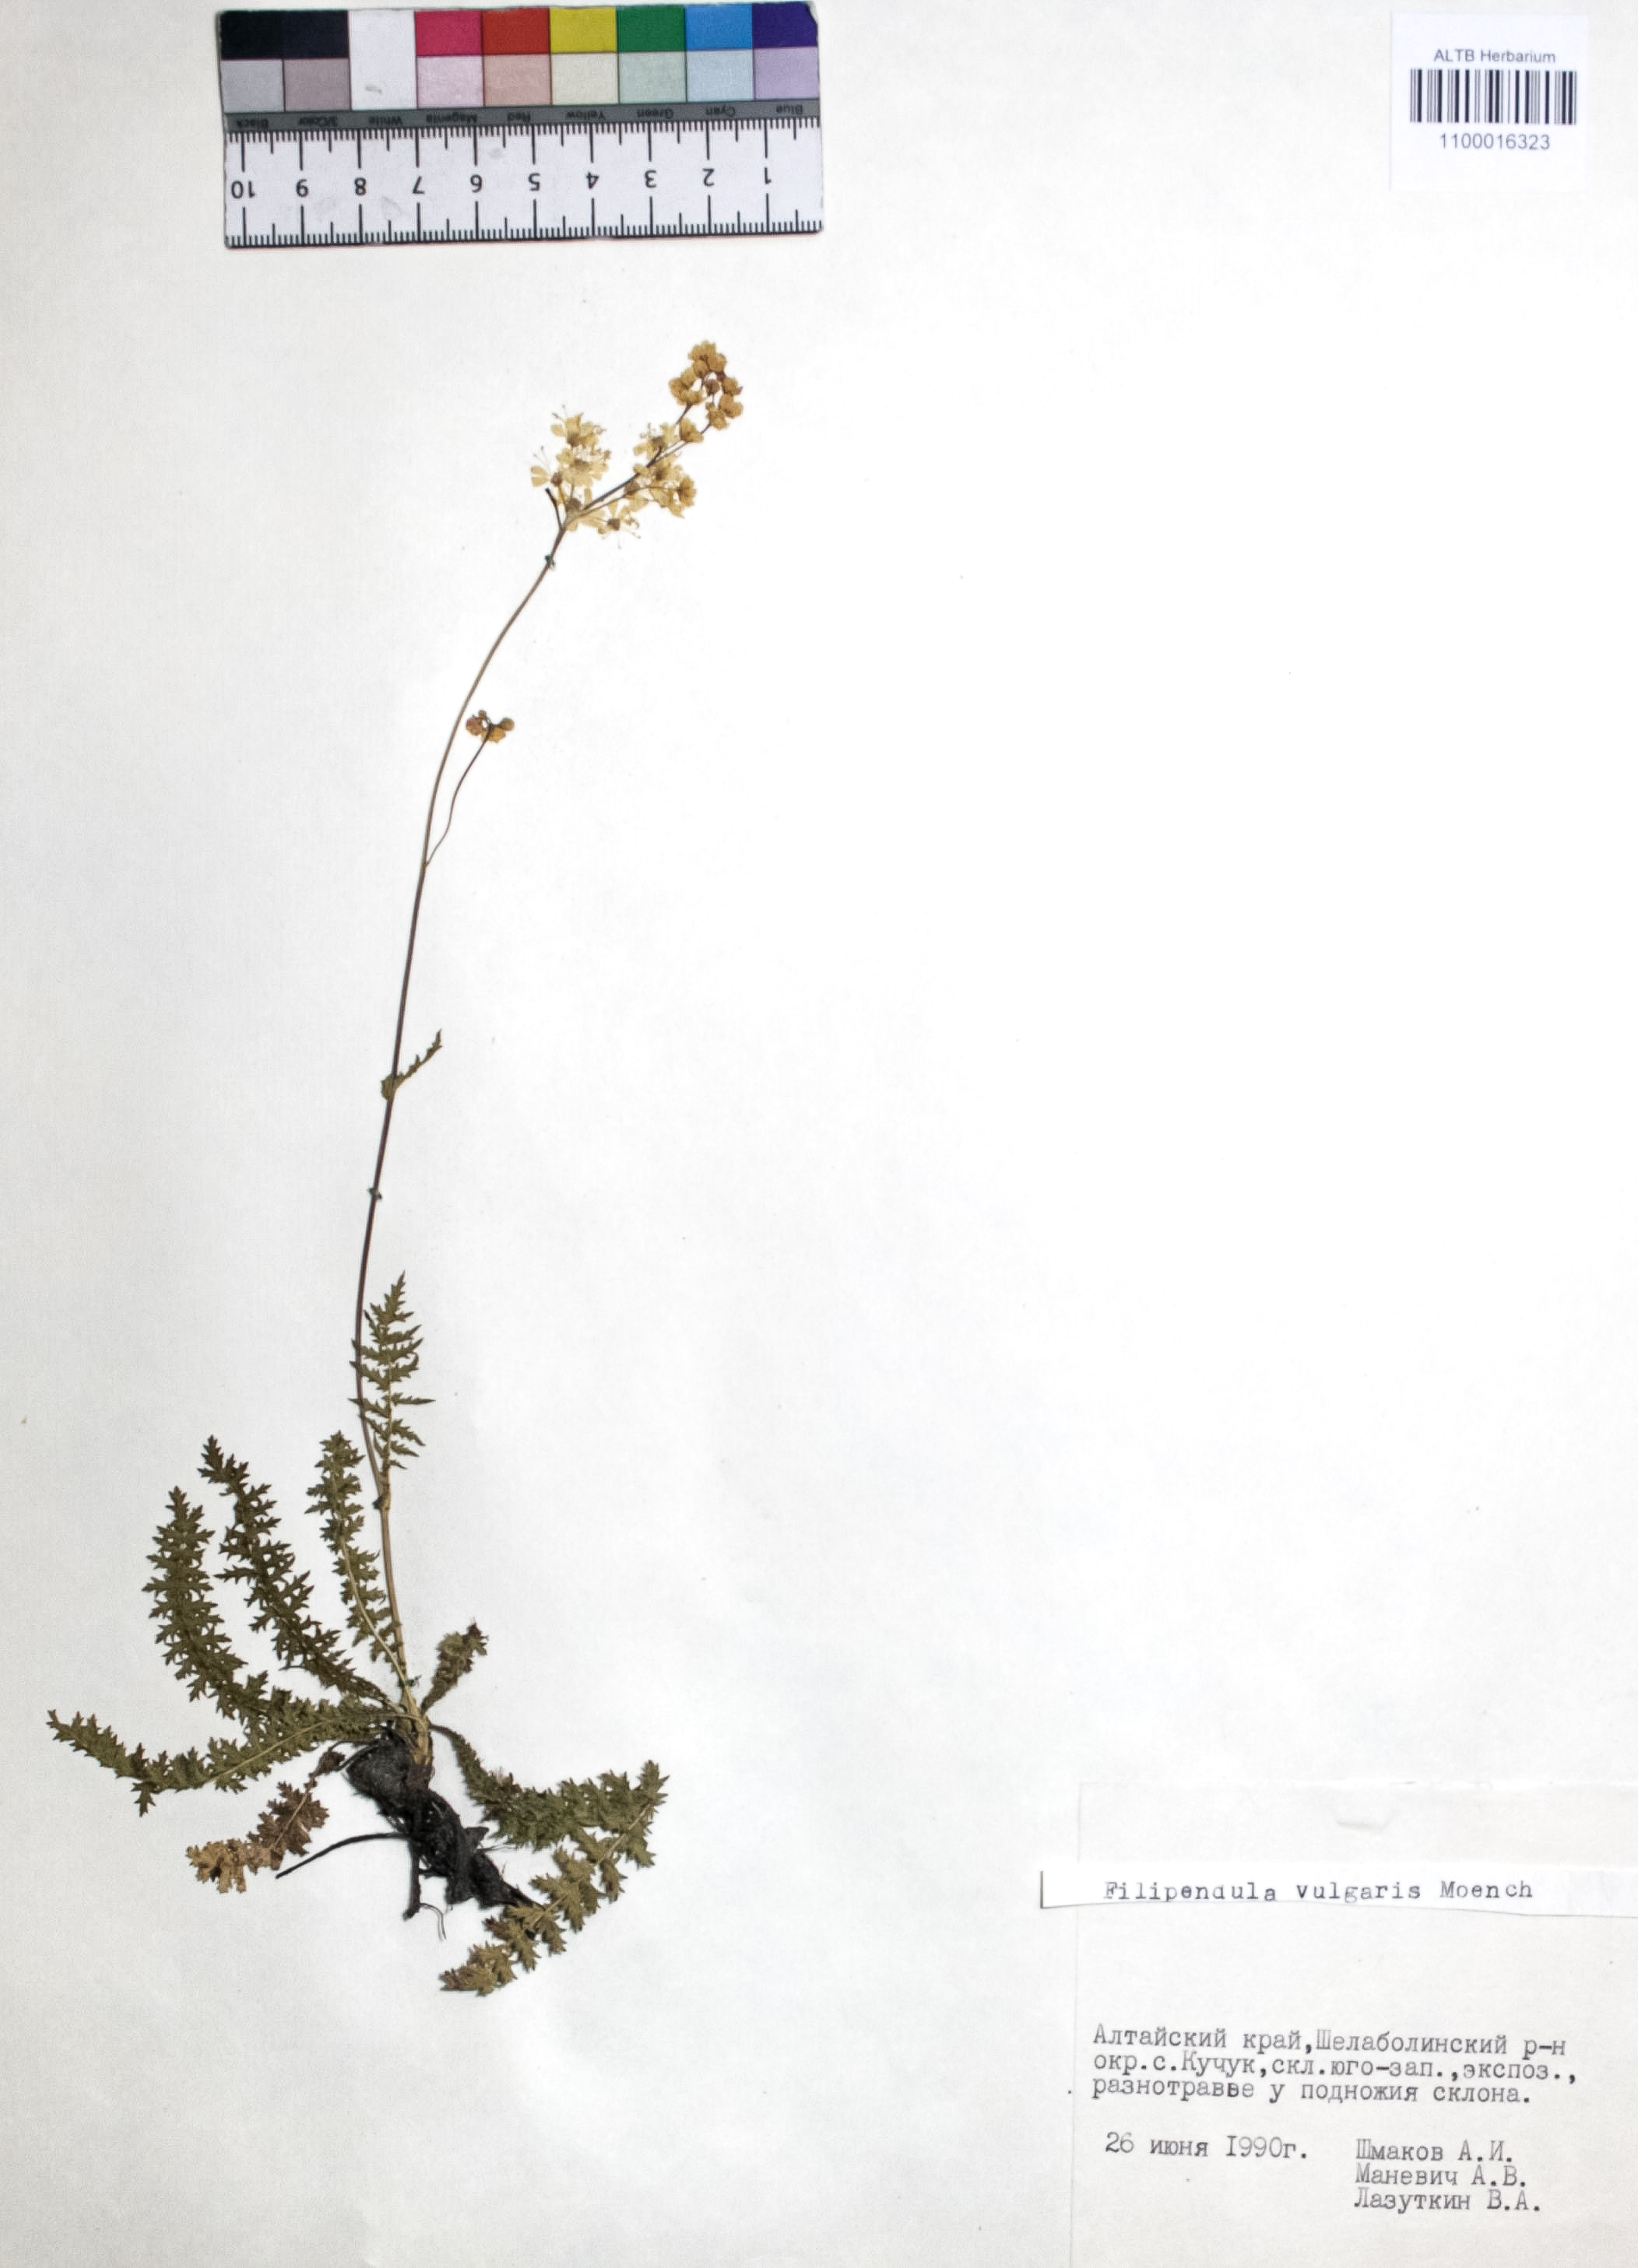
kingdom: Plantae
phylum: Tracheophyta
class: Magnoliopsida
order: Rosales
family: Rosaceae
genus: Filipendula
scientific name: Filipendula vulgaris
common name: Dropwort
